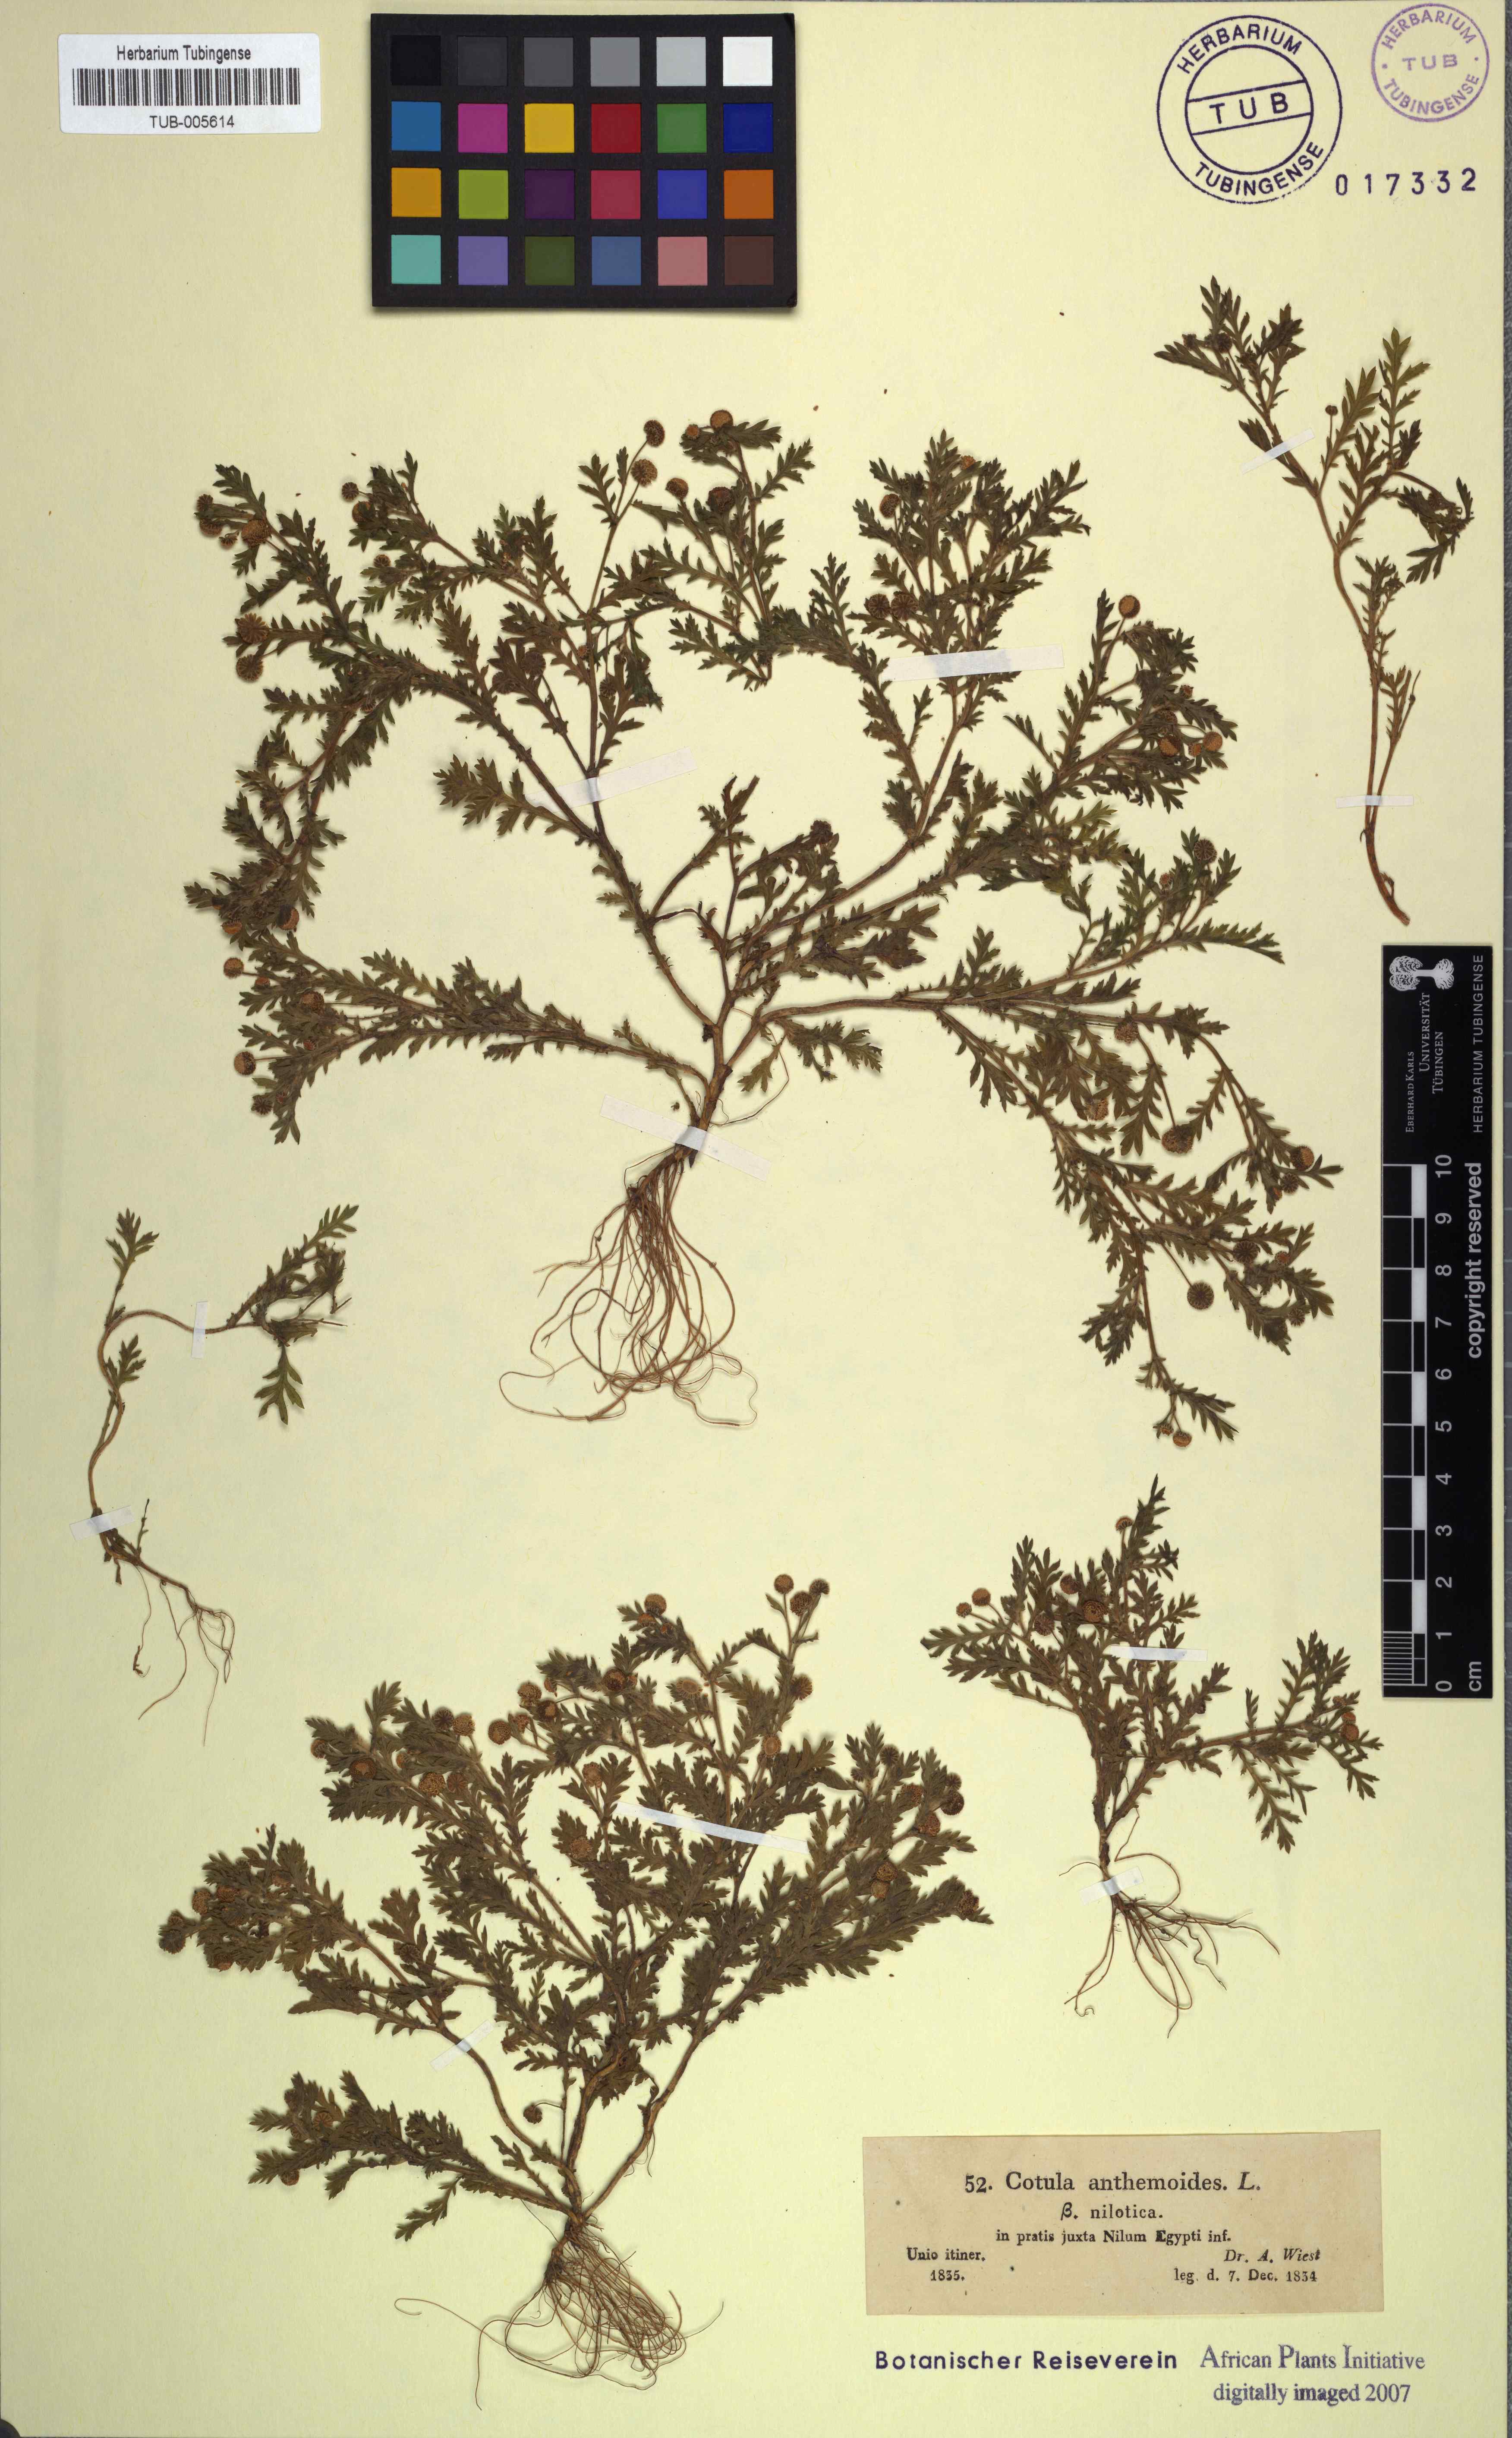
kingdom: Plantae
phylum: Tracheophyta
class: Magnoliopsida
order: Asterales
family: Asteraceae
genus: Cotula
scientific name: Cotula anthemoides
